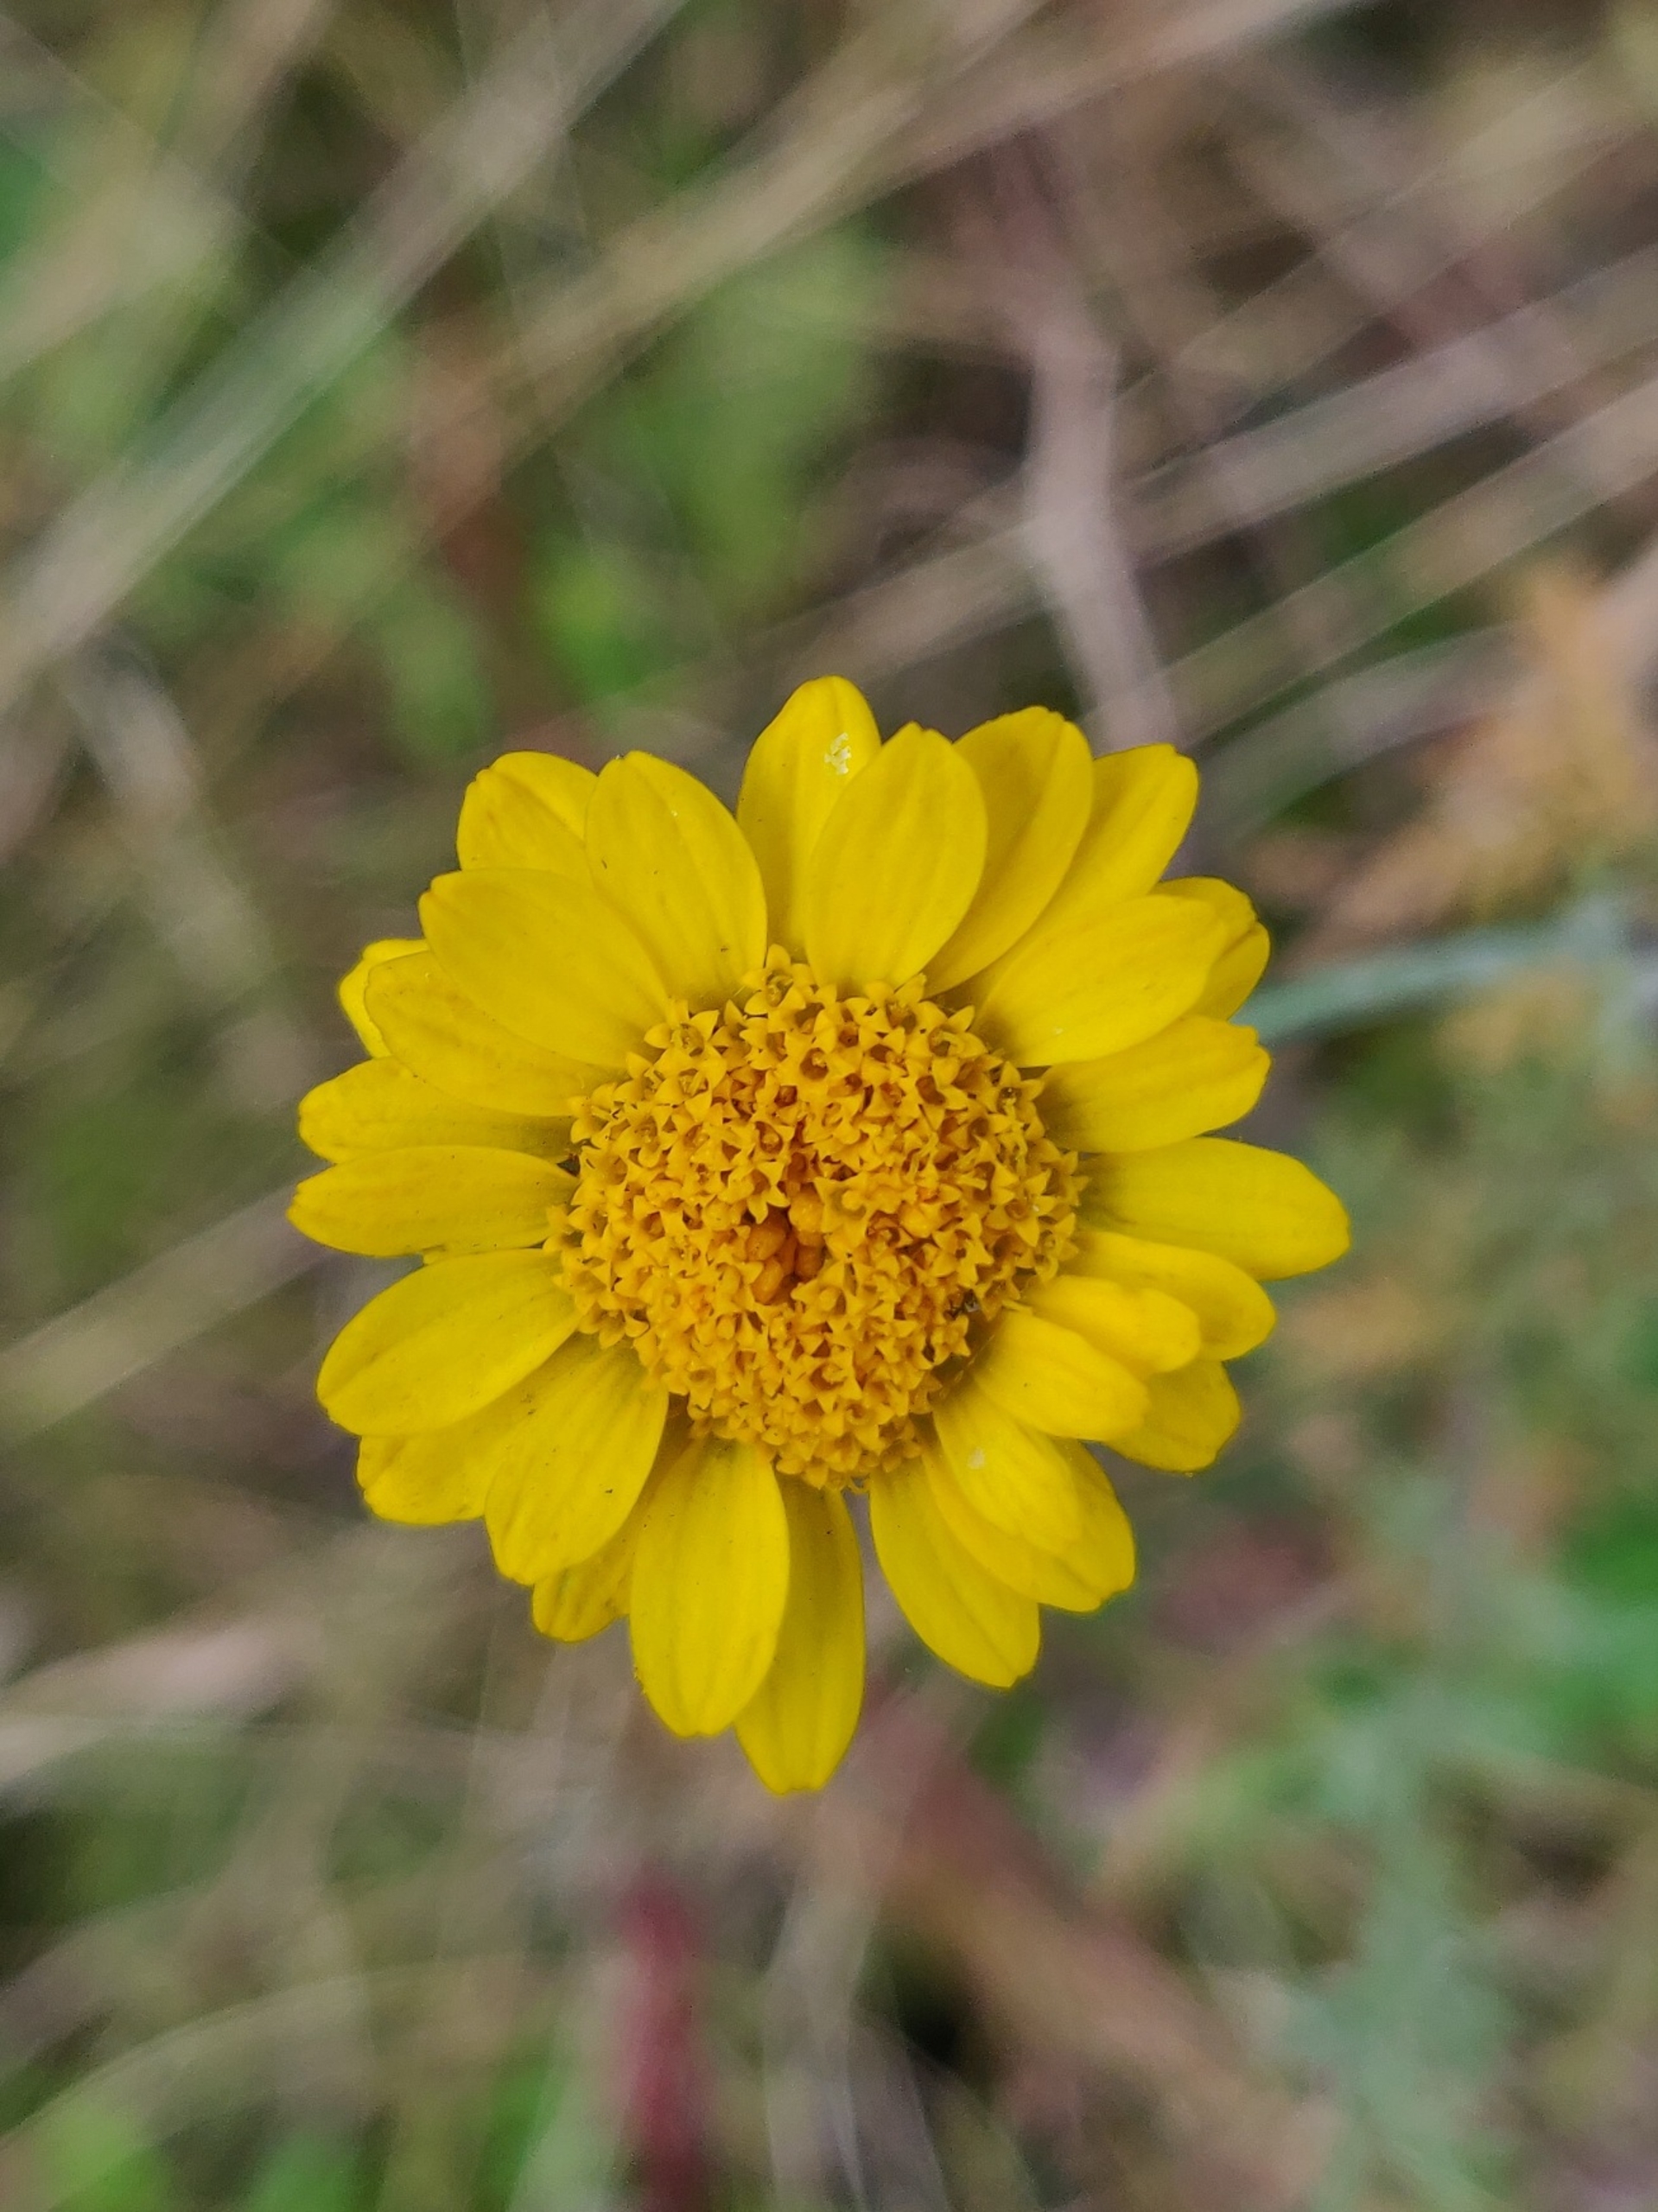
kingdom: Plantae
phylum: Tracheophyta
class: Magnoliopsida
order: Asterales
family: Asteraceae
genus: Cota
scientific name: Cota tinctoria
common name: Farve-gåseurt
